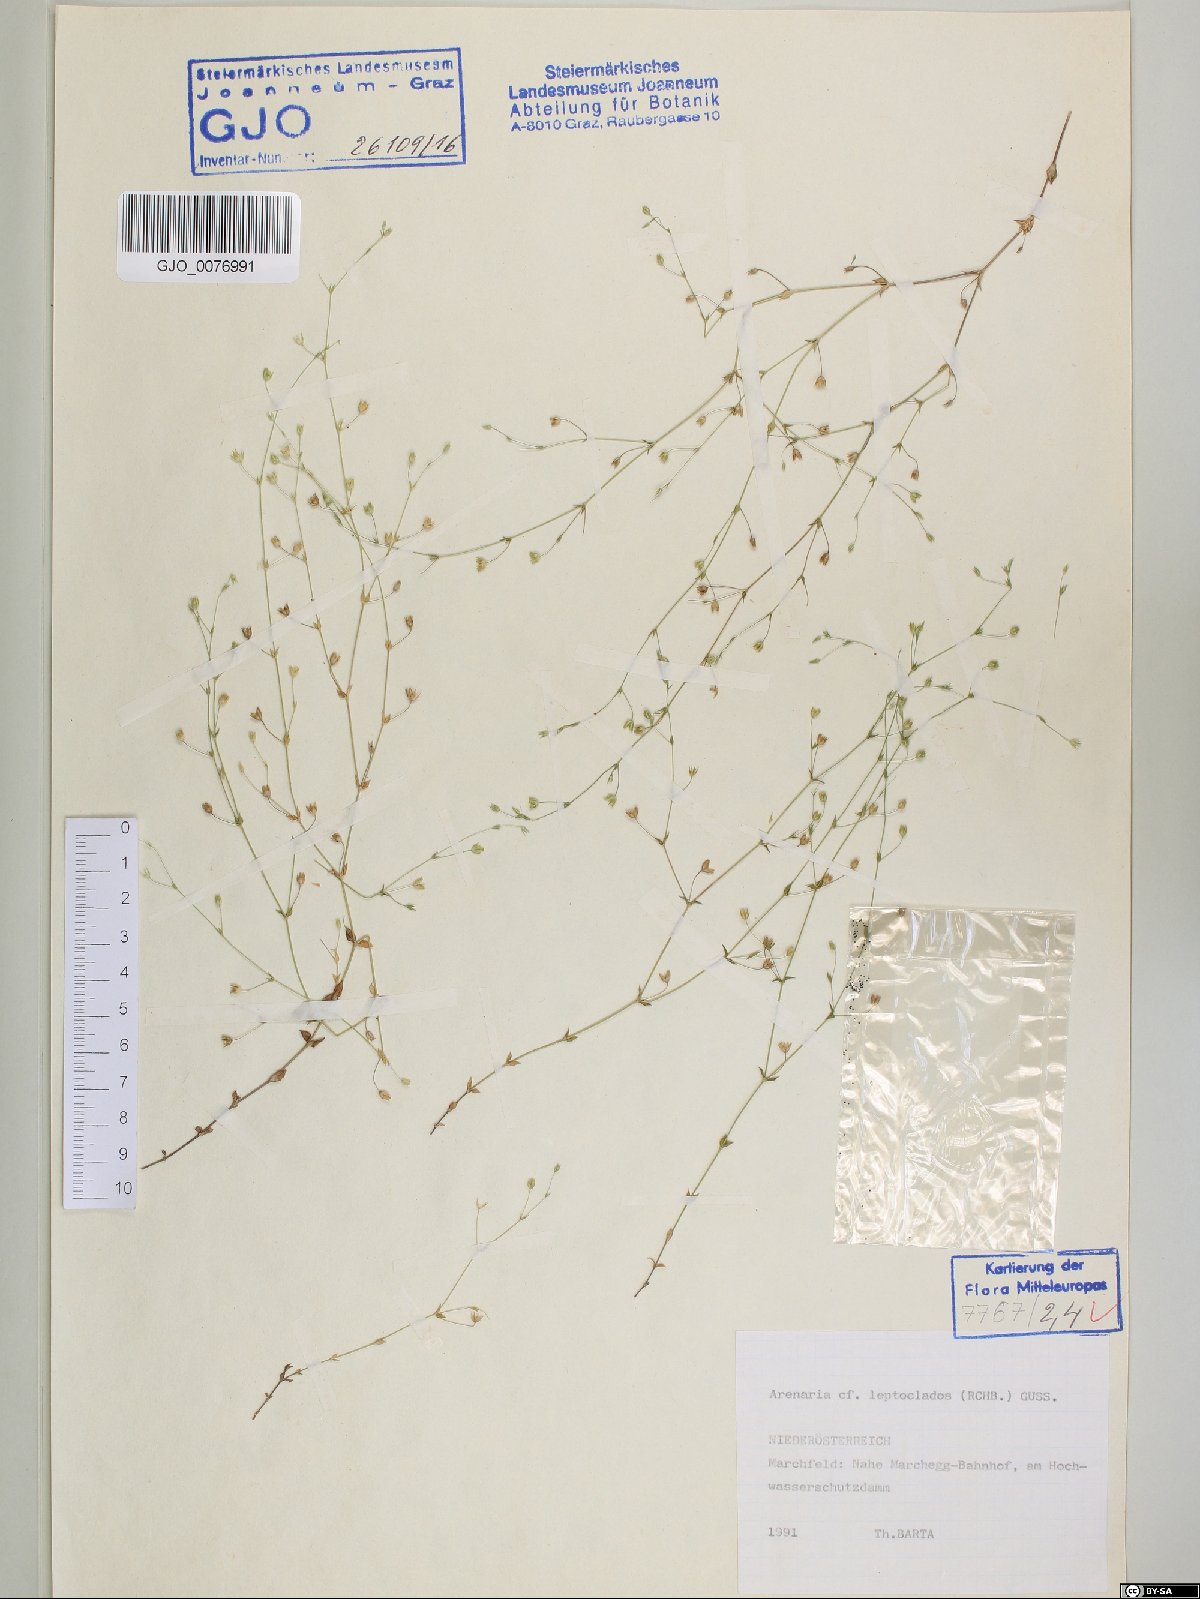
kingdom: Plantae
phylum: Tracheophyta
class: Magnoliopsida
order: Caryophyllales
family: Caryophyllaceae
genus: Arenaria
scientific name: Arenaria leptoclados
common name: Thyme-leaved sandwort
